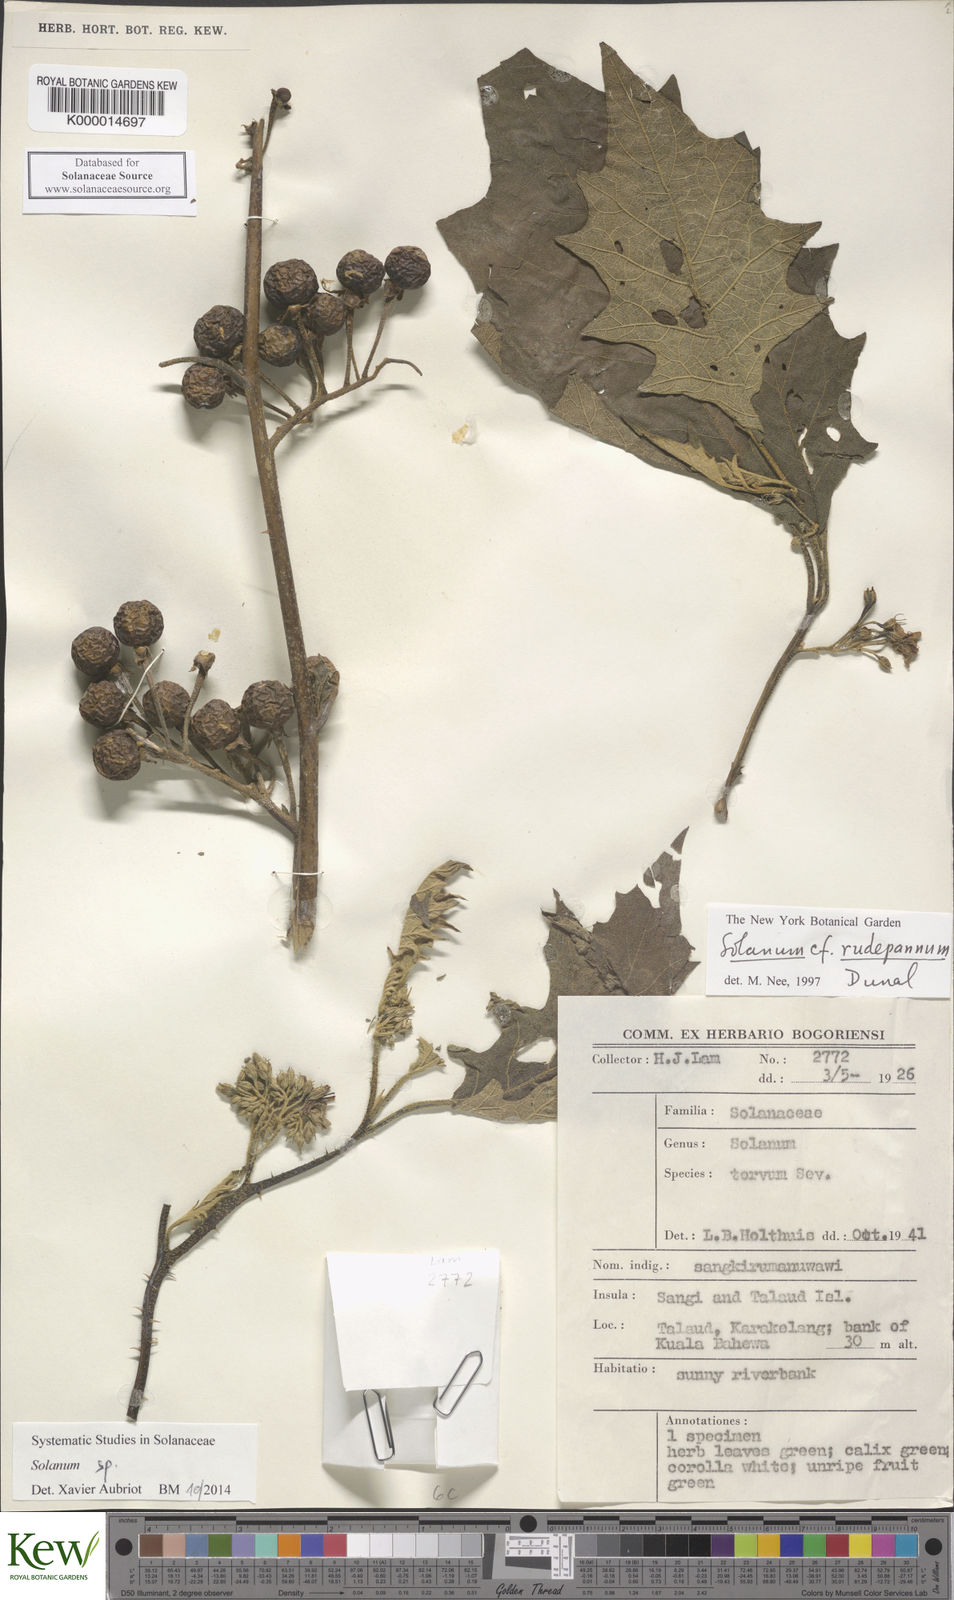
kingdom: Plantae
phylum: Tracheophyta
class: Magnoliopsida
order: Solanales
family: Solanaceae
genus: Solanum
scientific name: Solanum pubescens
